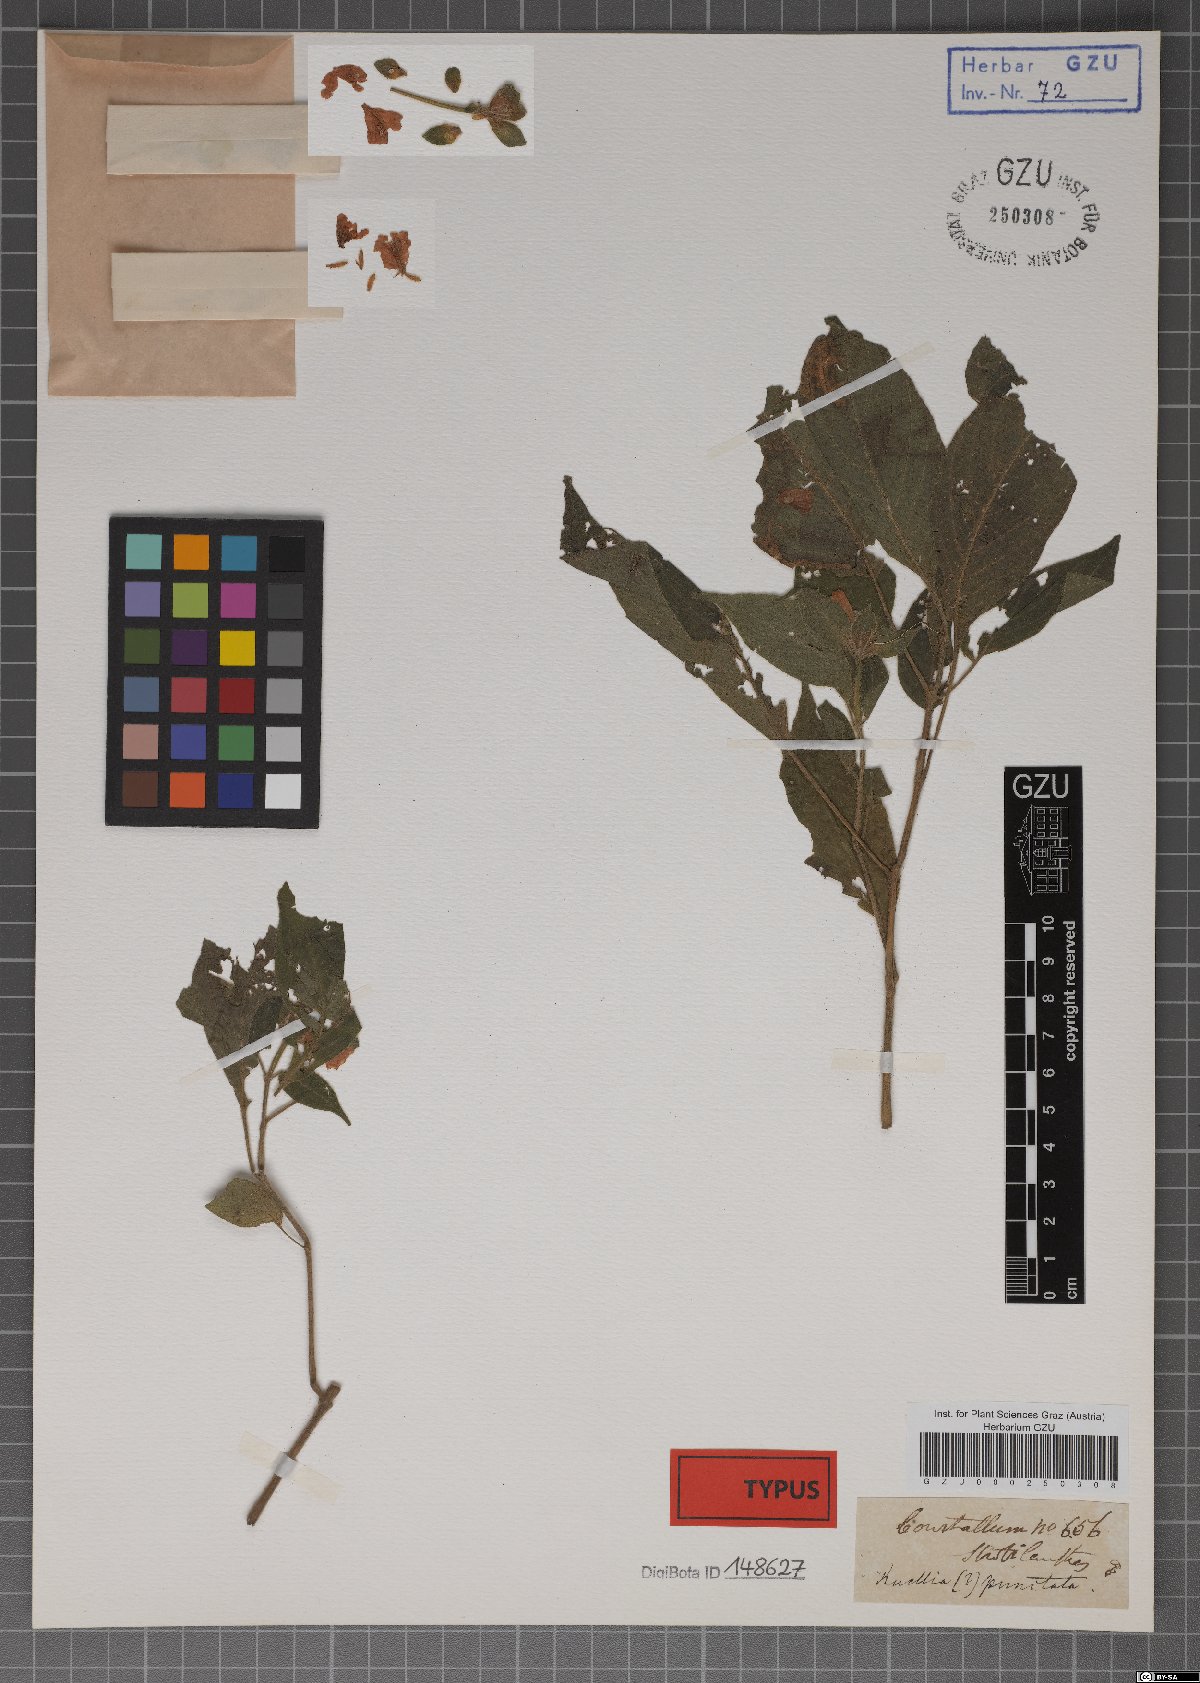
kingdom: Plantae
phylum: Tracheophyta
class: Magnoliopsida
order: Lamiales
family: Acanthaceae
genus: Strobilanthes
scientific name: Strobilanthes microstachya
